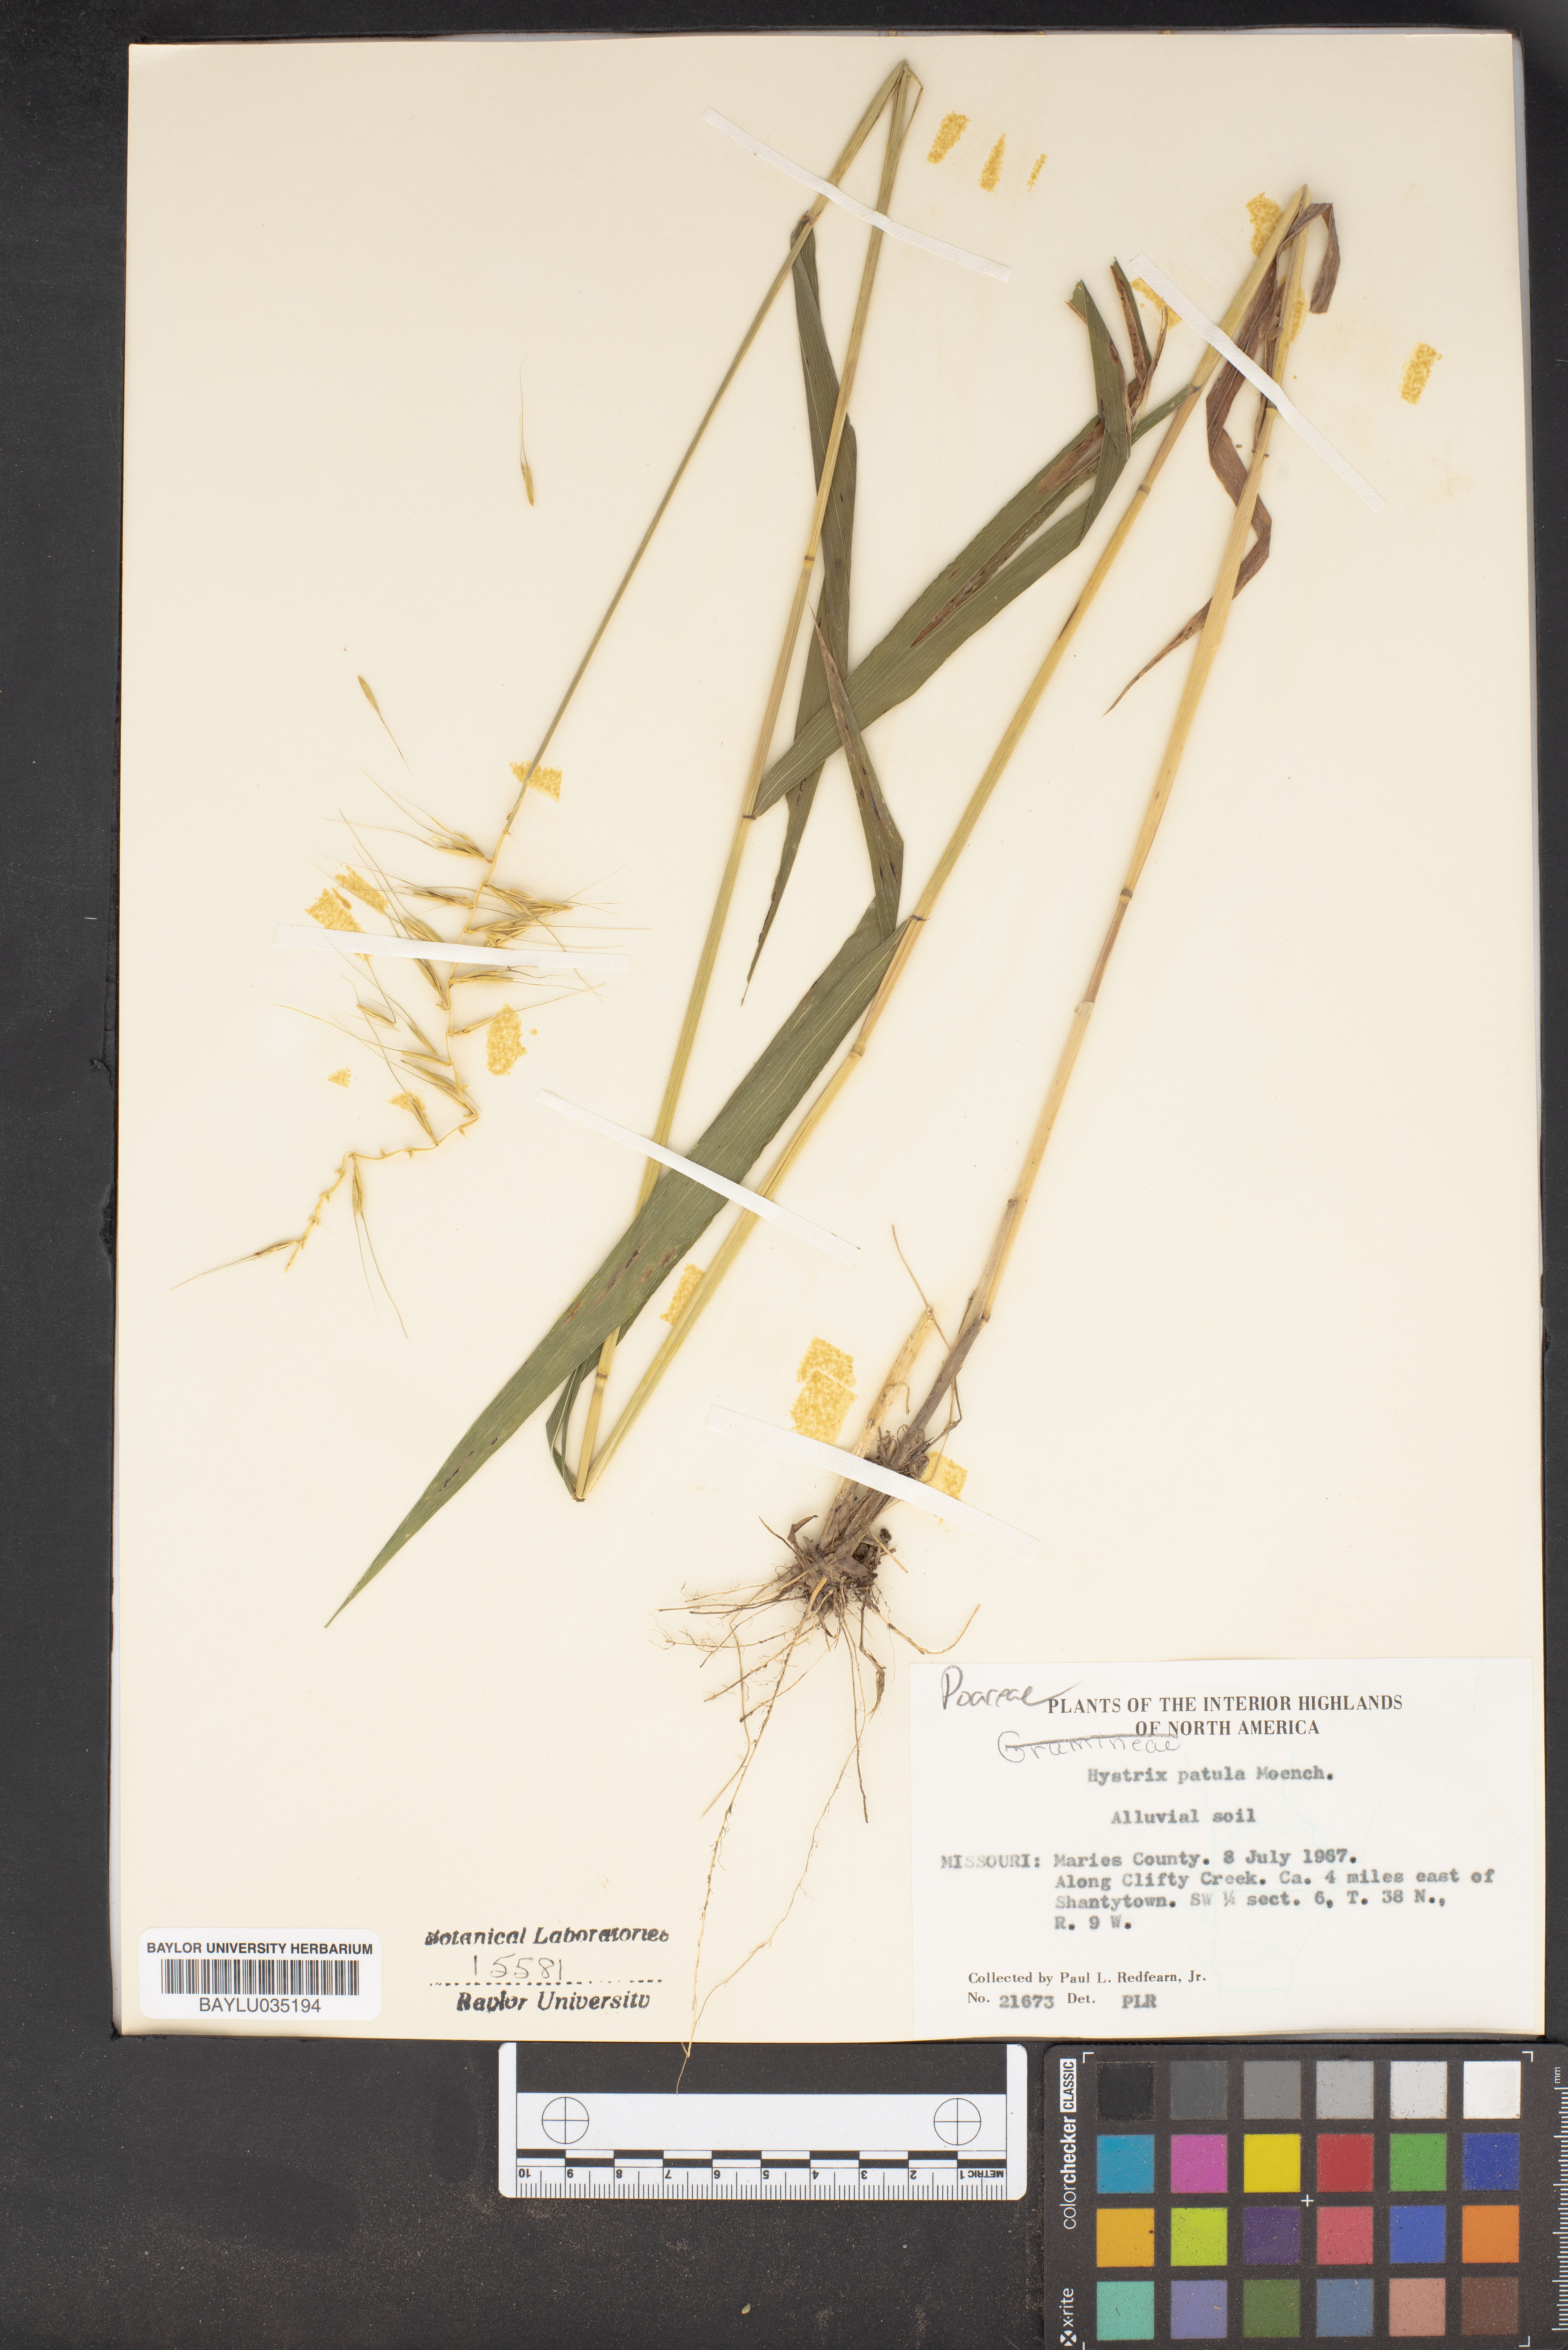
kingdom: Plantae
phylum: Tracheophyta
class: Liliopsida
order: Poales
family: Poaceae
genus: Elymus
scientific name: Elymus hystrix
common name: Bottlebrush grass
